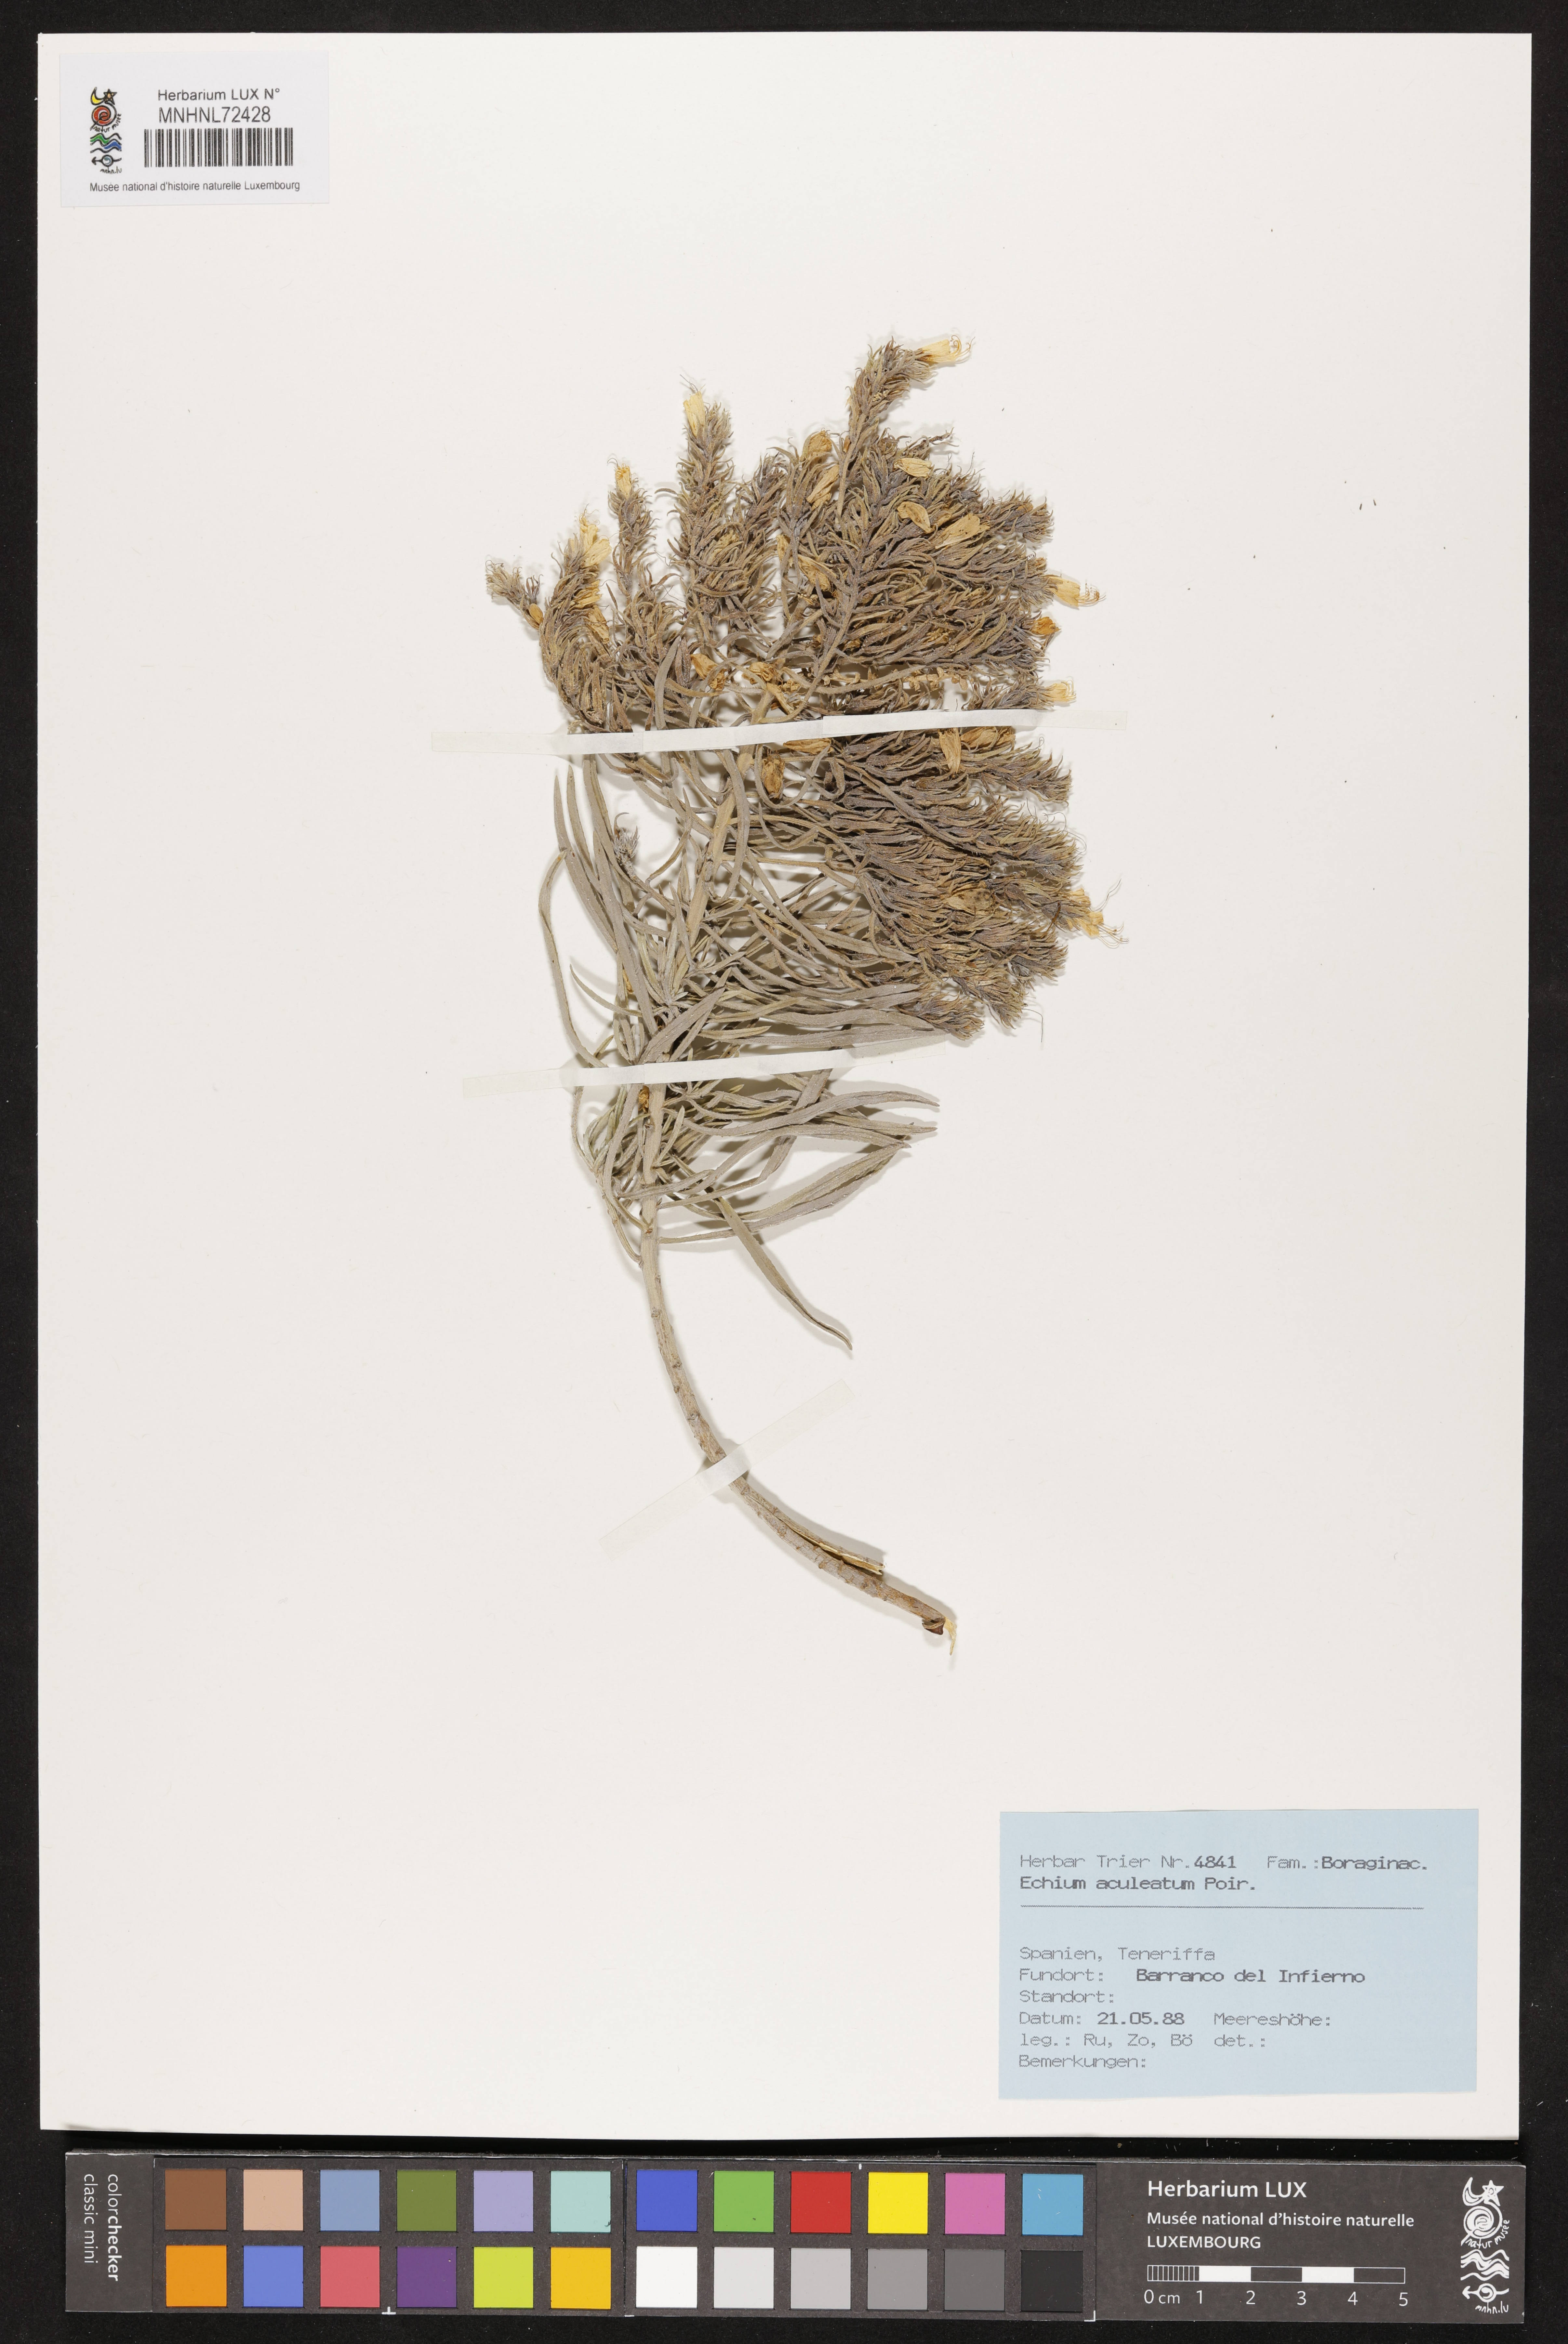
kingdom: Plantae
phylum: Tracheophyta
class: Magnoliopsida
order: Boraginales
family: Boraginaceae
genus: Echium
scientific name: Echium aculeatum
